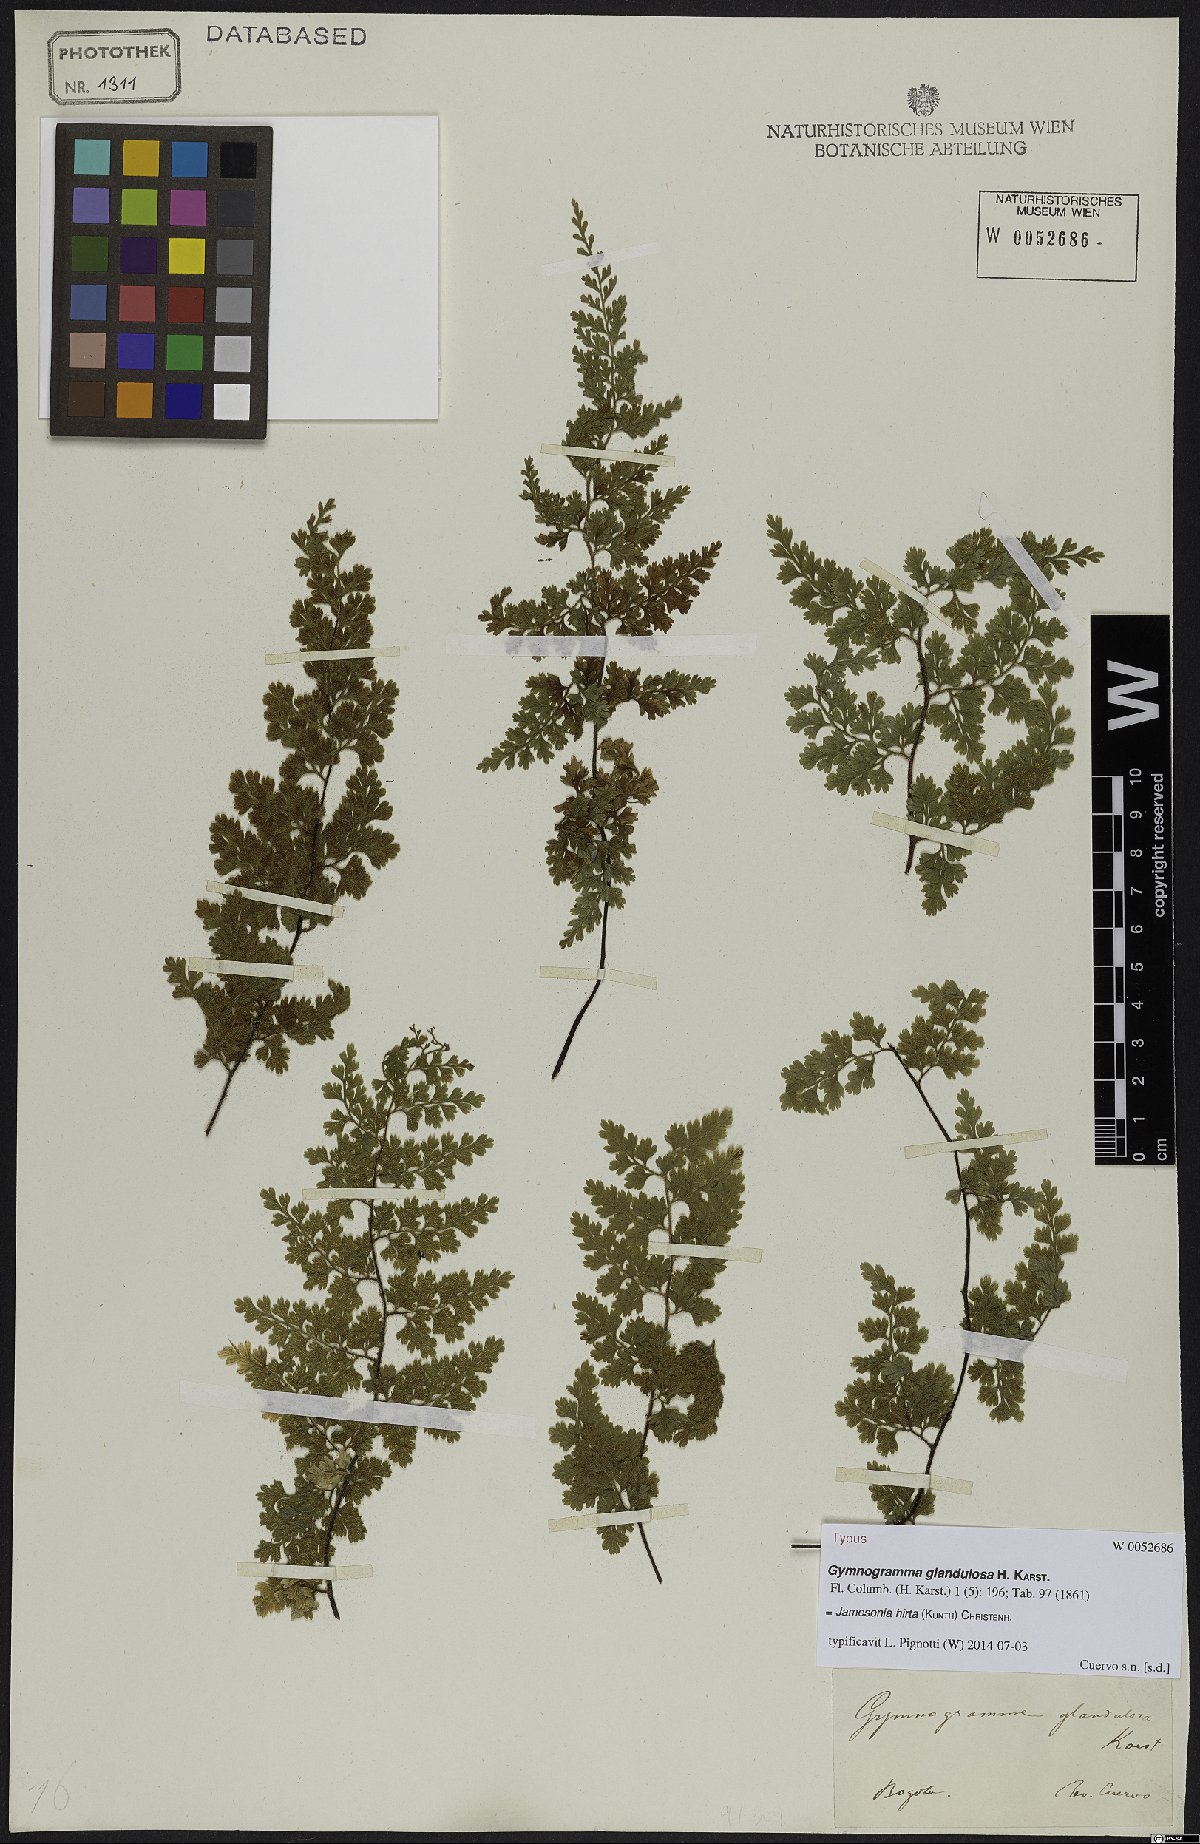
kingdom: Plantae
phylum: Tracheophyta
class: Polypodiopsida
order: Polypodiales
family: Pteridaceae
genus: Jamesonia
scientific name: Jamesonia hirta
